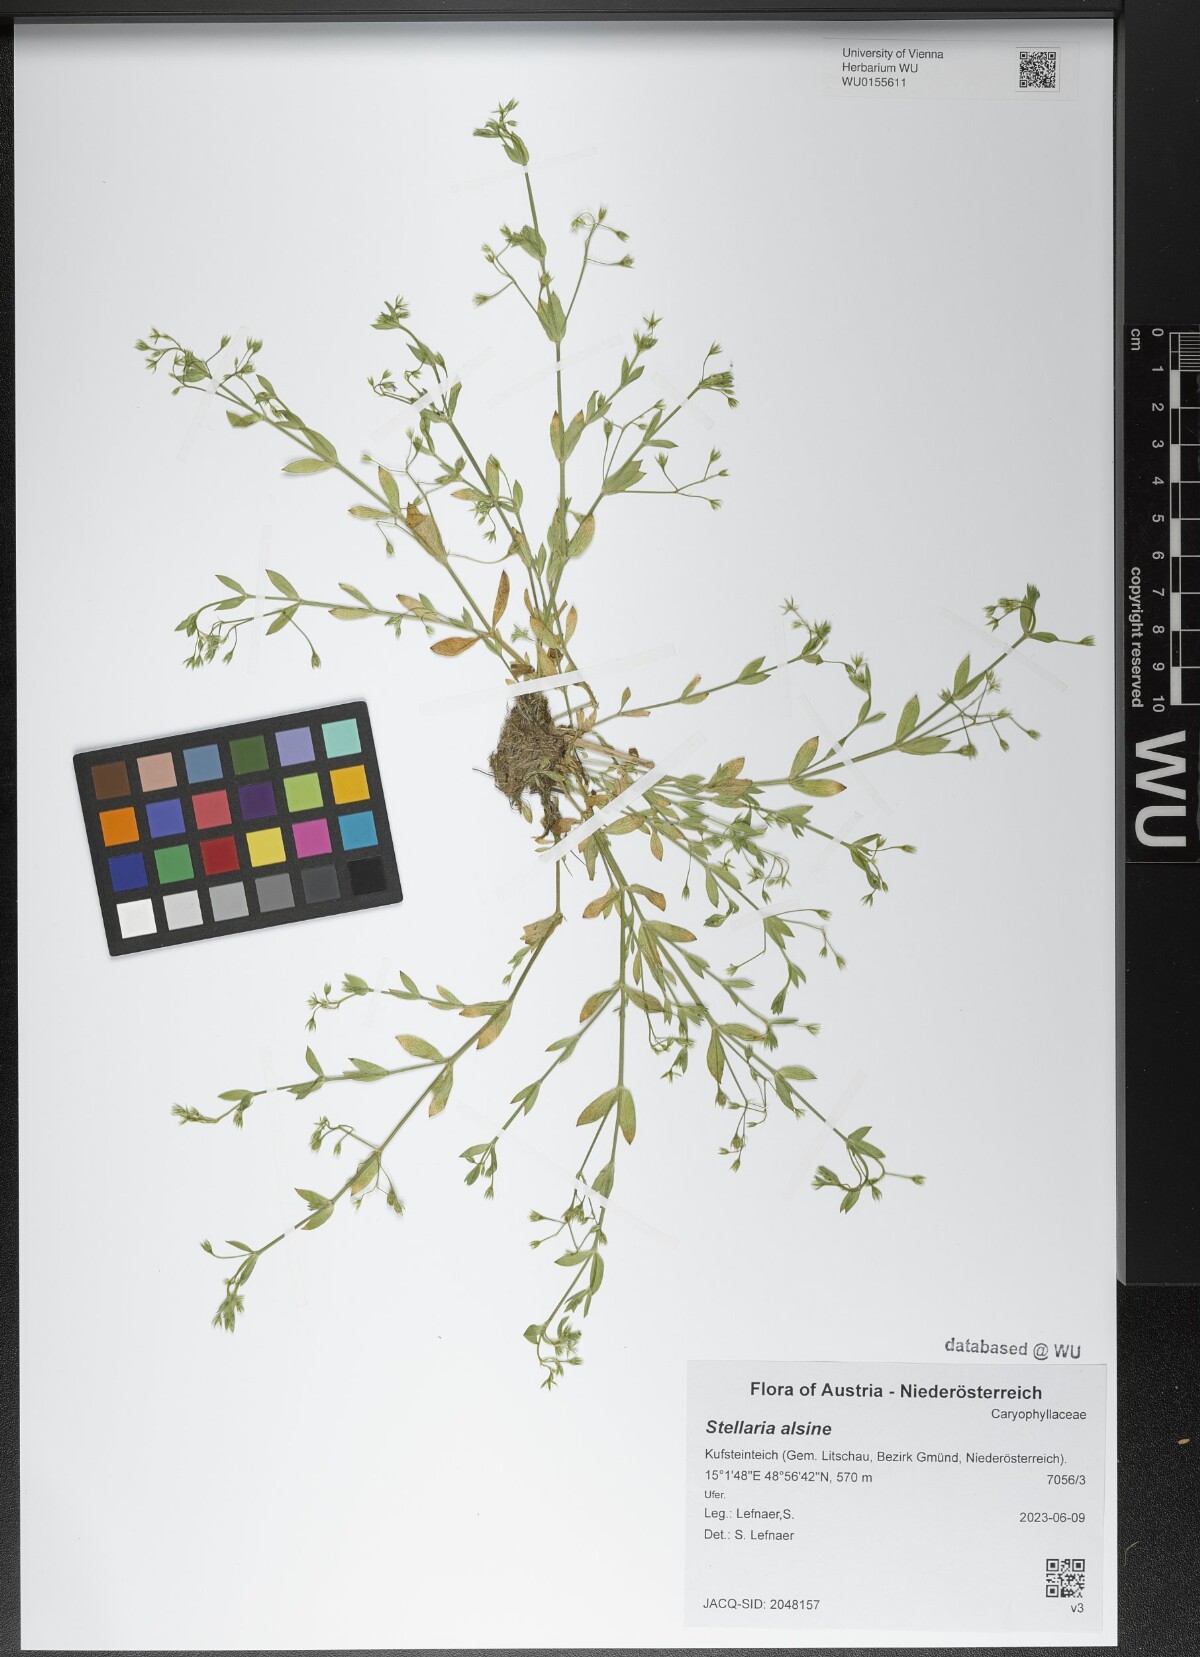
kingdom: Plantae
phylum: Tracheophyta
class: Magnoliopsida
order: Caryophyllales
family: Caryophyllaceae
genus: Stellaria
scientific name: Stellaria alsine
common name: Bog stitchwort
